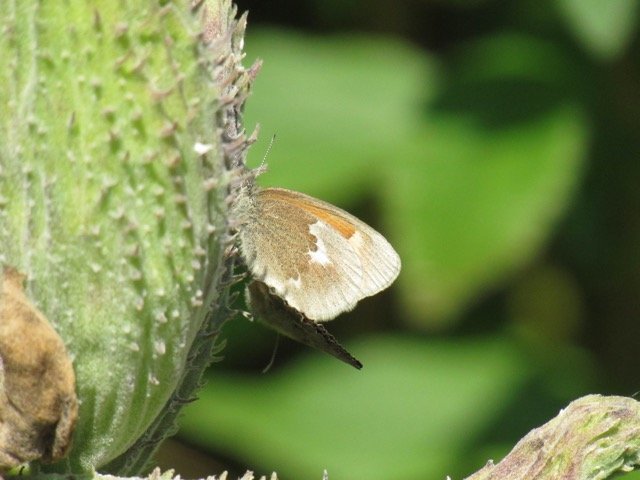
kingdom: Animalia
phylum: Arthropoda
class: Insecta
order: Lepidoptera
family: Nymphalidae
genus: Coenonympha
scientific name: Coenonympha tullia
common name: Large Heath
